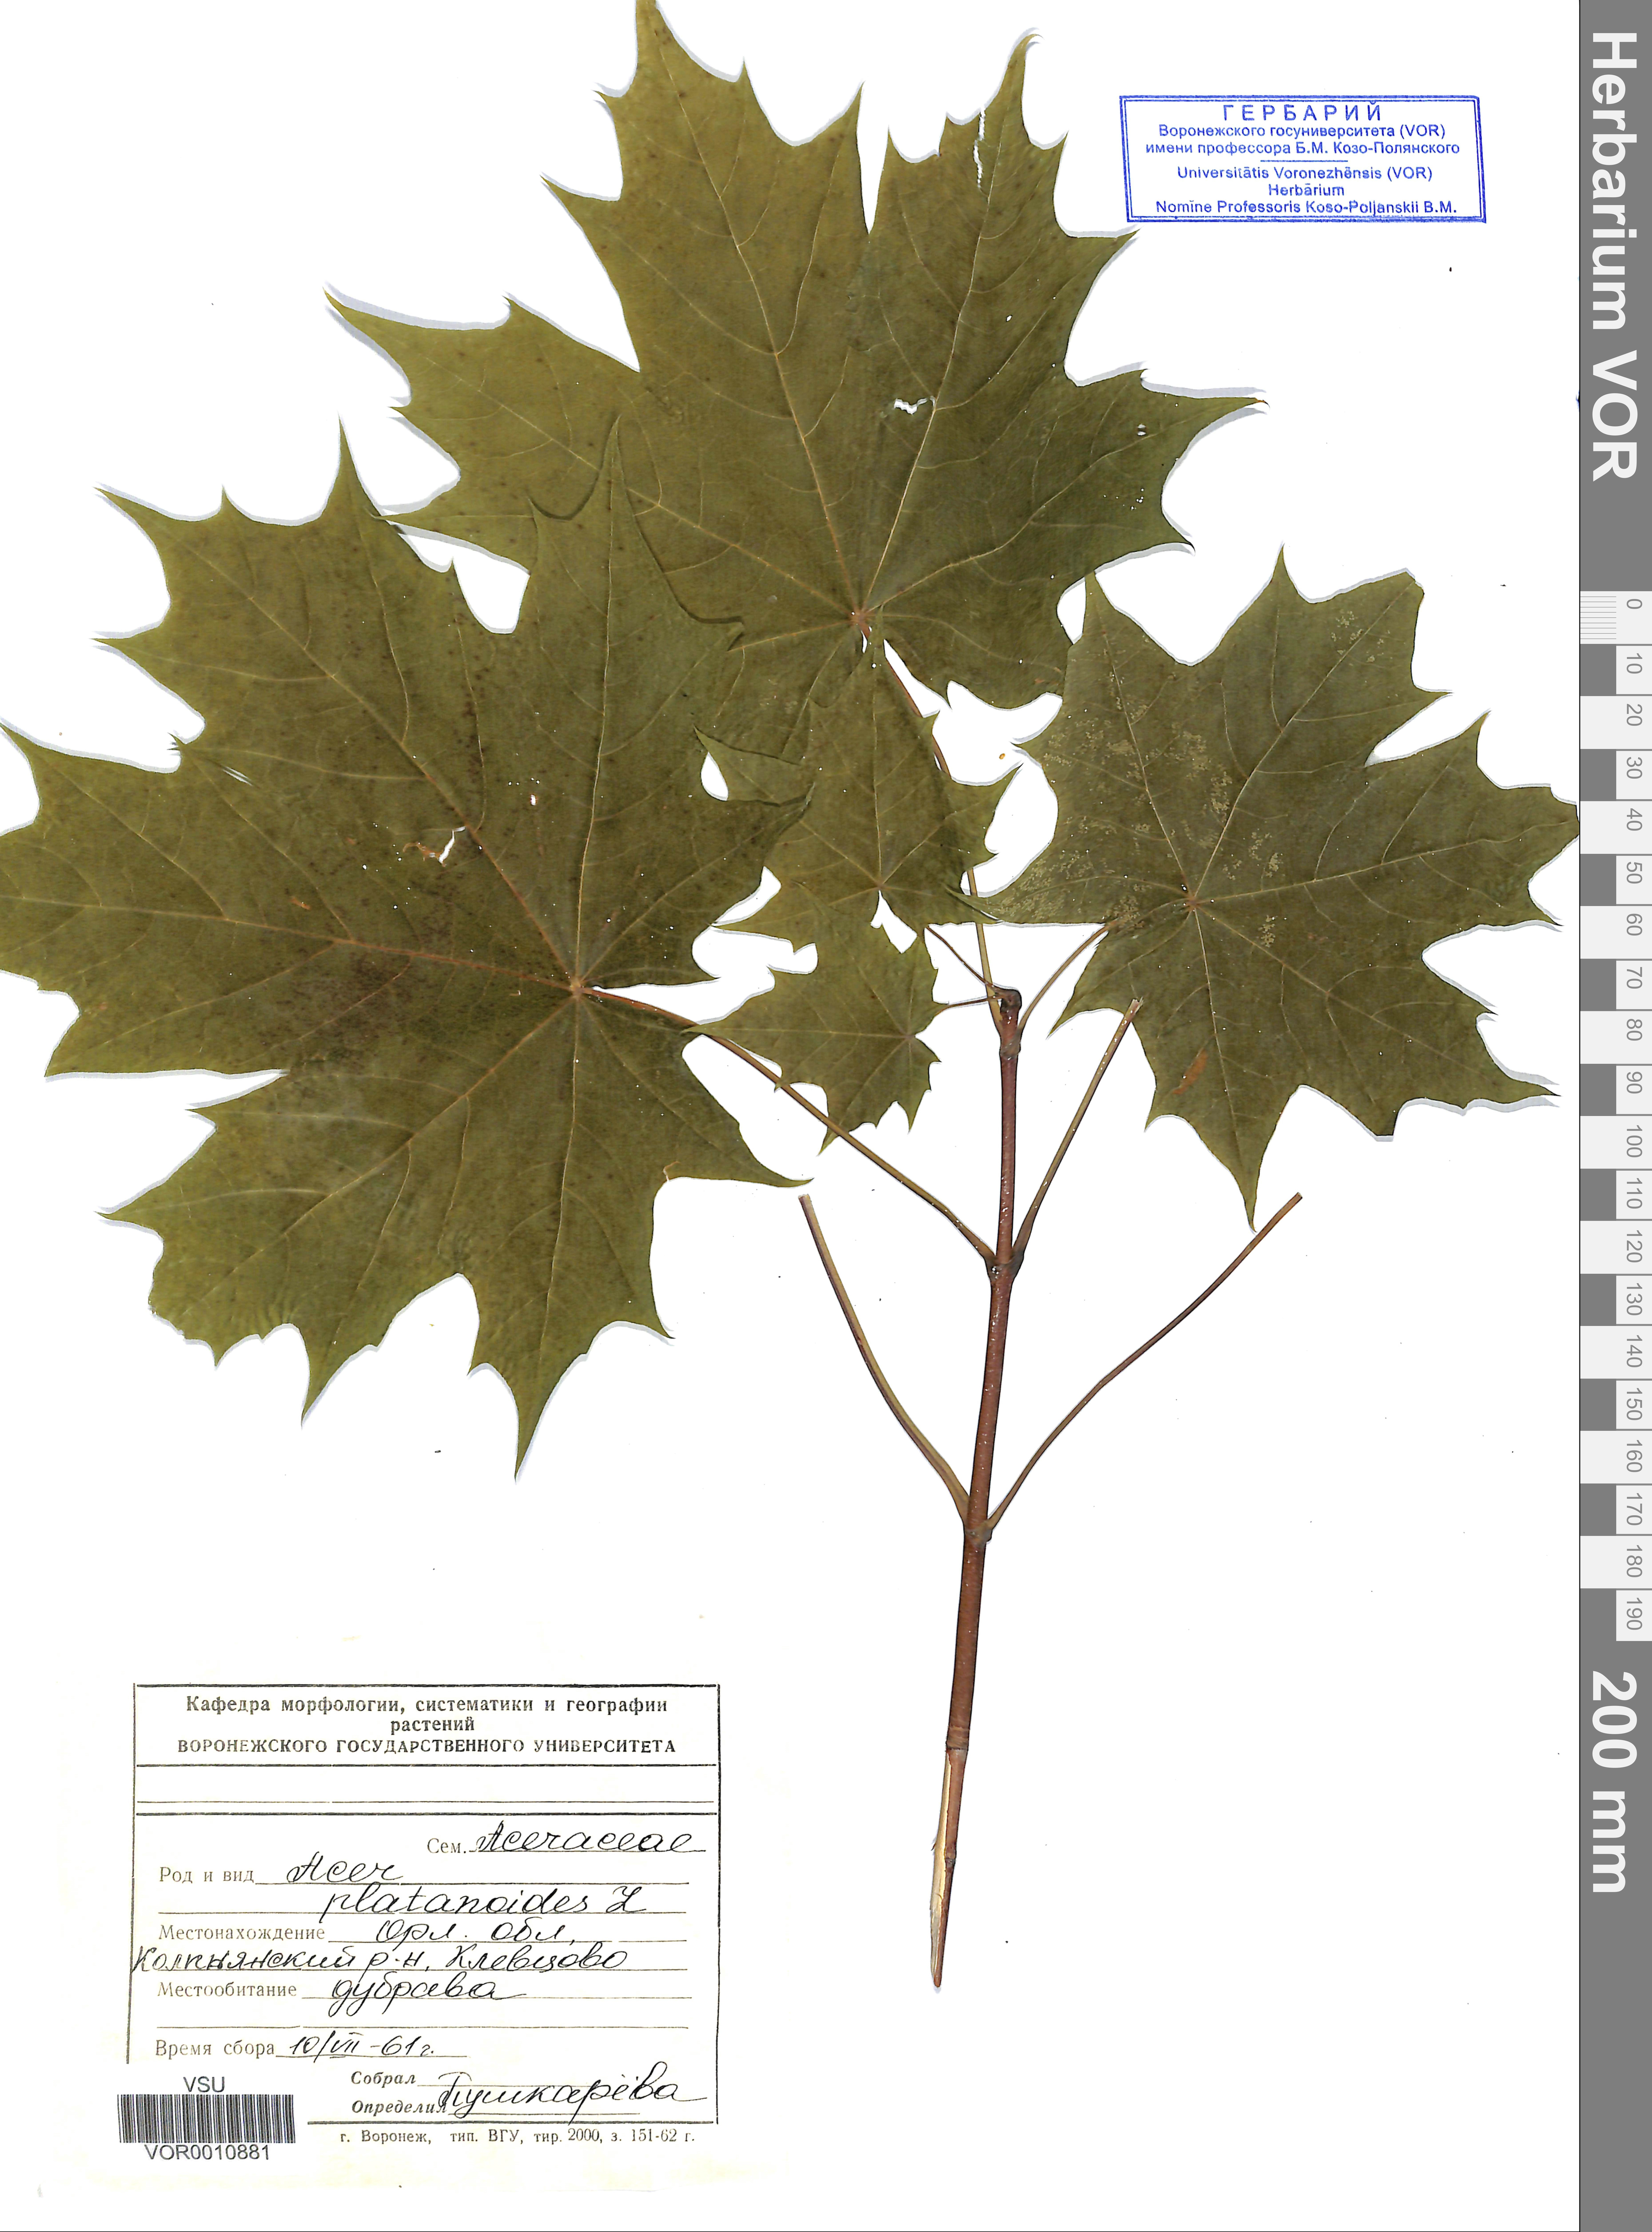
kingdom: Plantae
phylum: Tracheophyta
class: Magnoliopsida
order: Sapindales
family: Sapindaceae
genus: Acer
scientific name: Acer platanoides
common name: Norway maple
